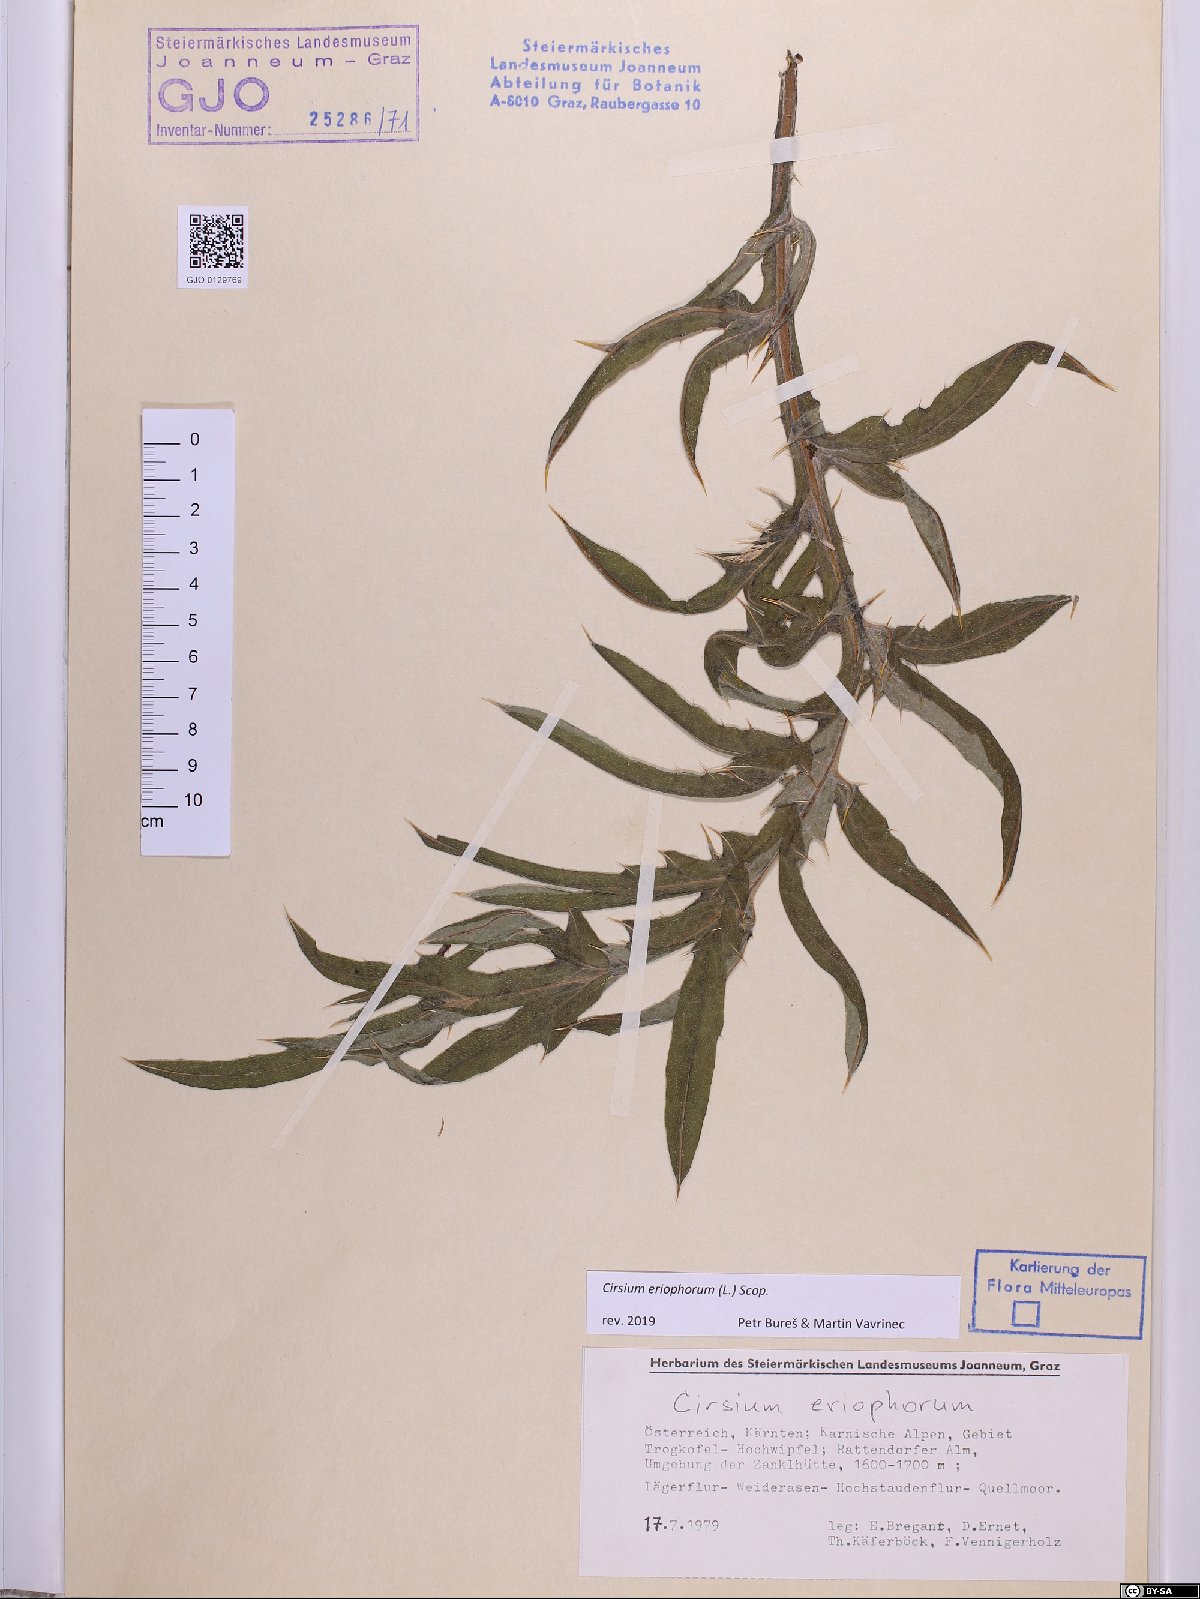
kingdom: Plantae
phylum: Tracheophyta
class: Magnoliopsida
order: Asterales
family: Asteraceae
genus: Lophiolepis
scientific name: Lophiolepis eriophora
